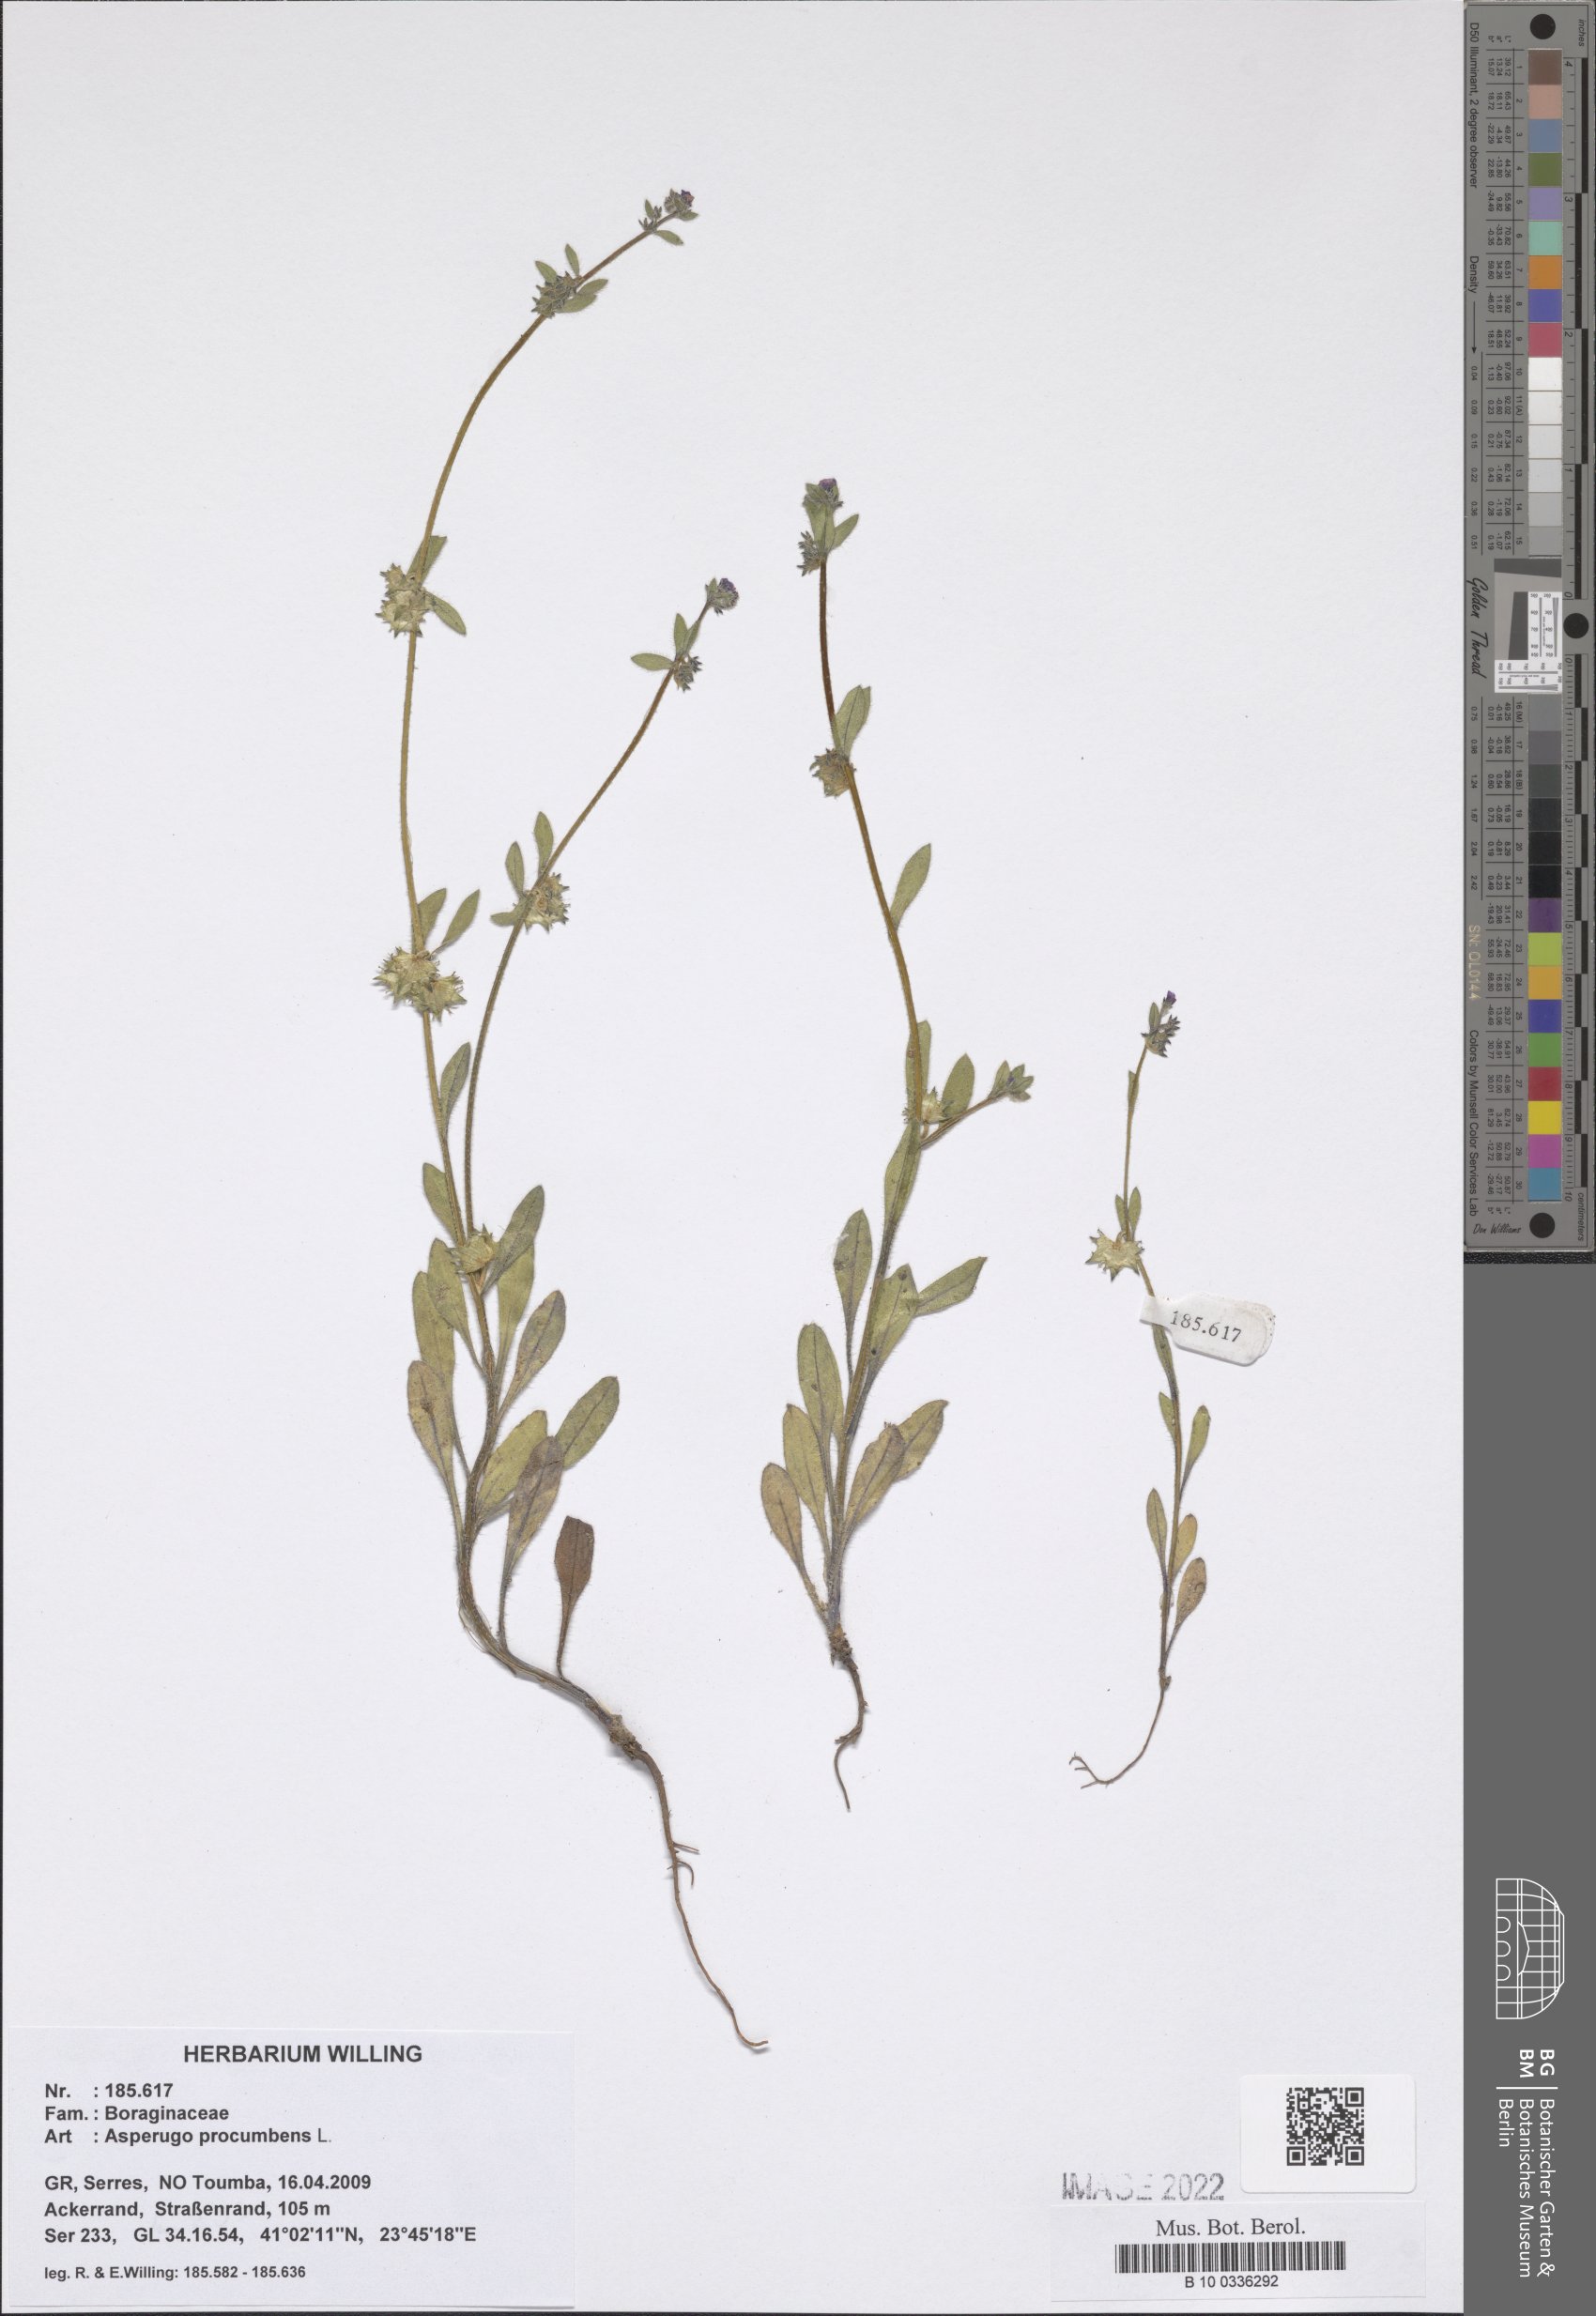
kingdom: Plantae
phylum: Tracheophyta
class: Magnoliopsida
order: Boraginales
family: Boraginaceae
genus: Asperugo
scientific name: Asperugo procumbens
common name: Madwort
